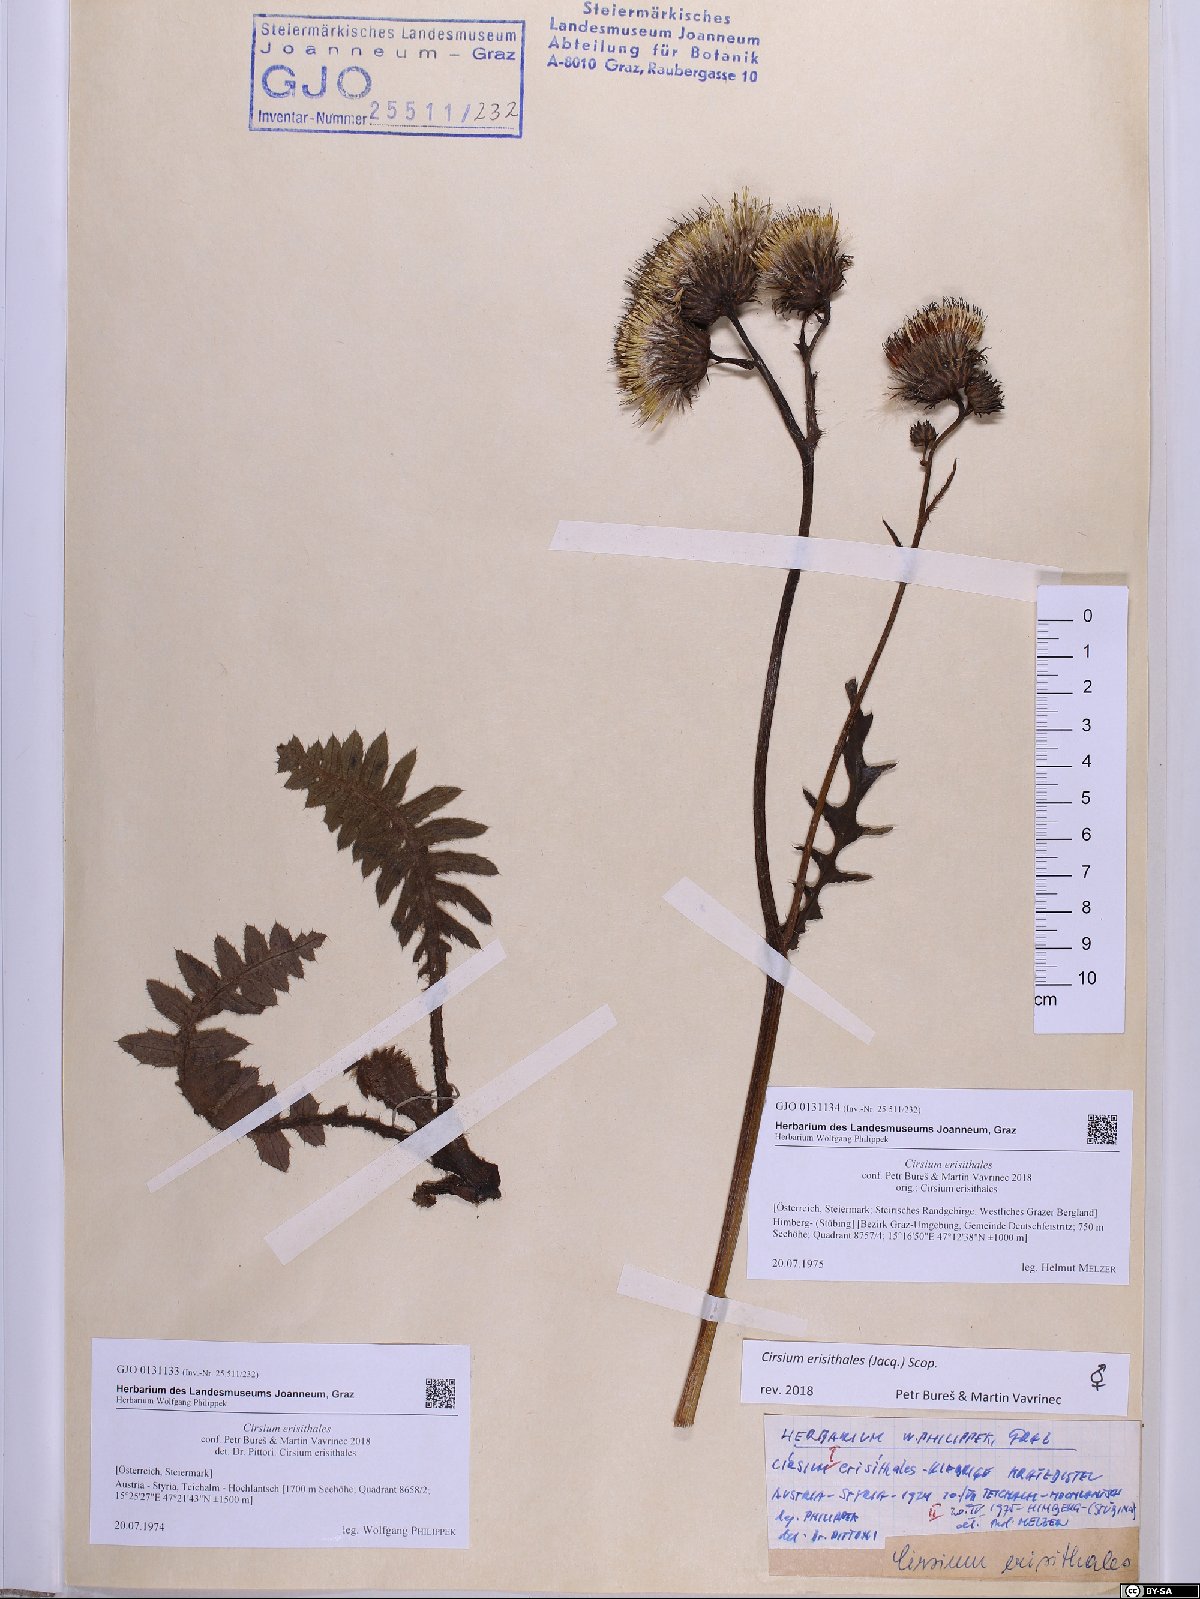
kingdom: Plantae
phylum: Tracheophyta
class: Magnoliopsida
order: Asterales
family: Asteraceae
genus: Cirsium
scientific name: Cirsium erisithales
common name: Yellow thistle
